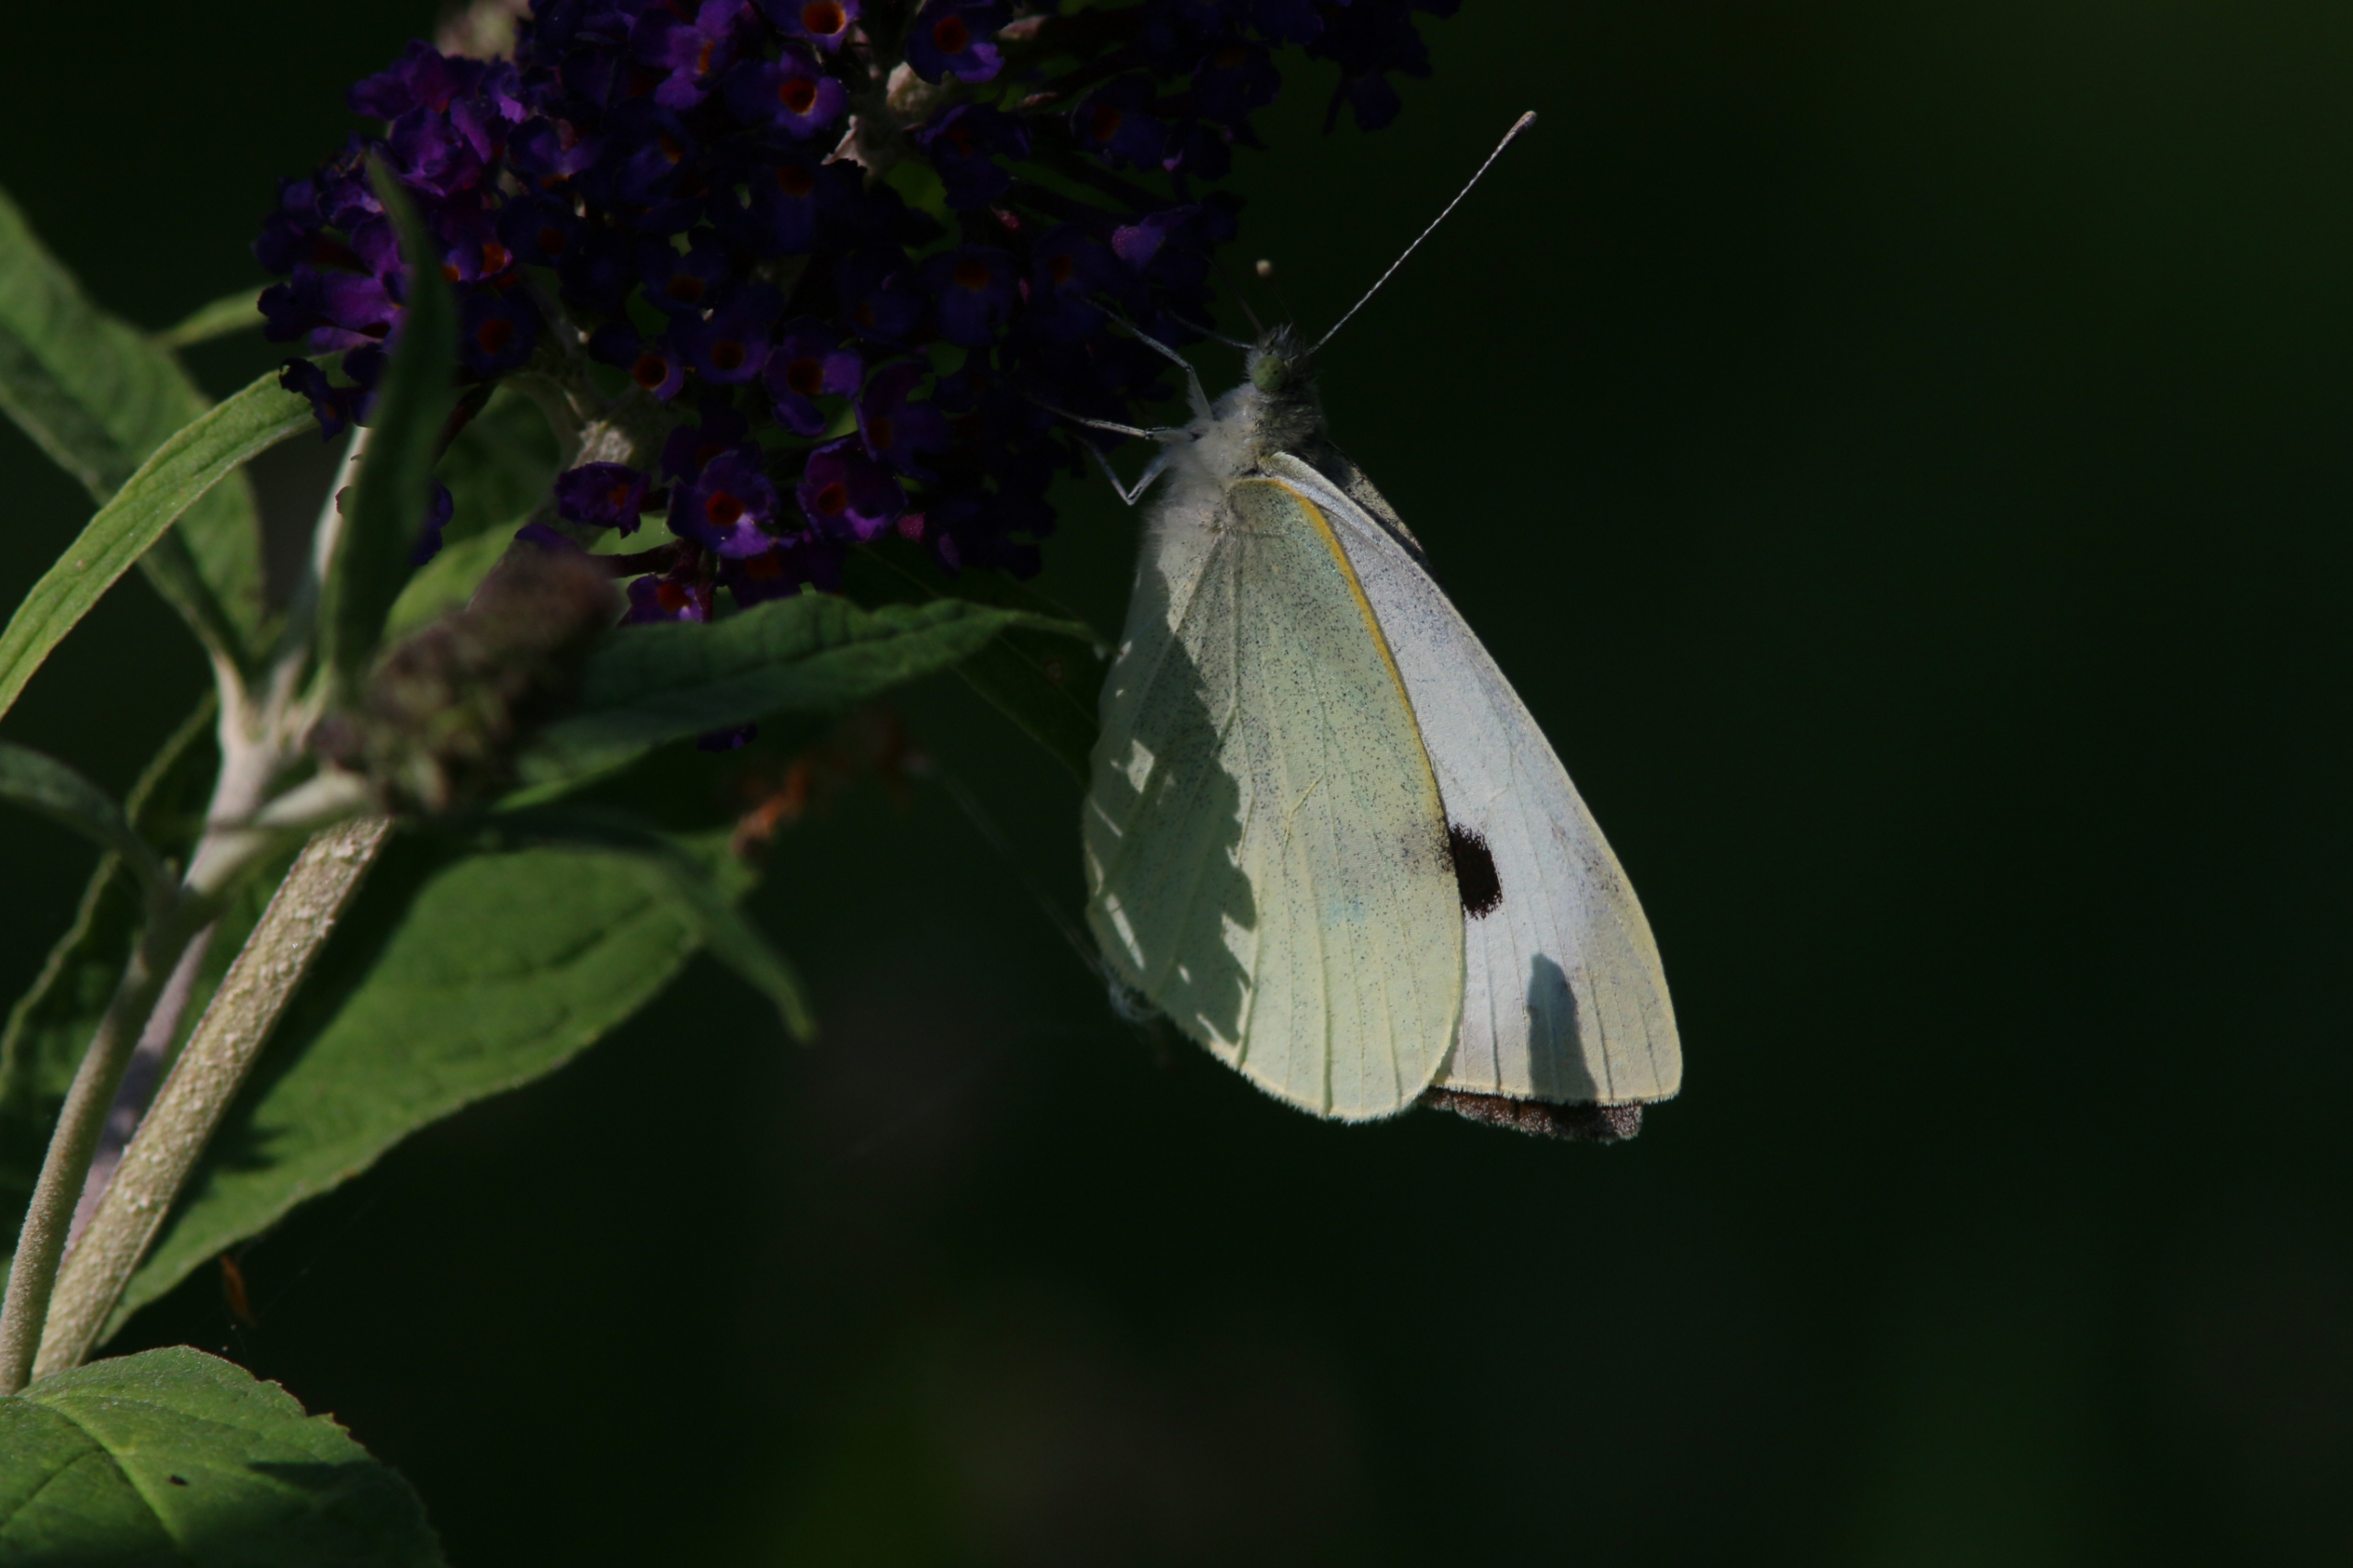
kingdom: Animalia
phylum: Arthropoda
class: Insecta
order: Lepidoptera
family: Pieridae
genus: Pieris
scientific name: Pieris brassicae
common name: Stor kålsommerfugl
